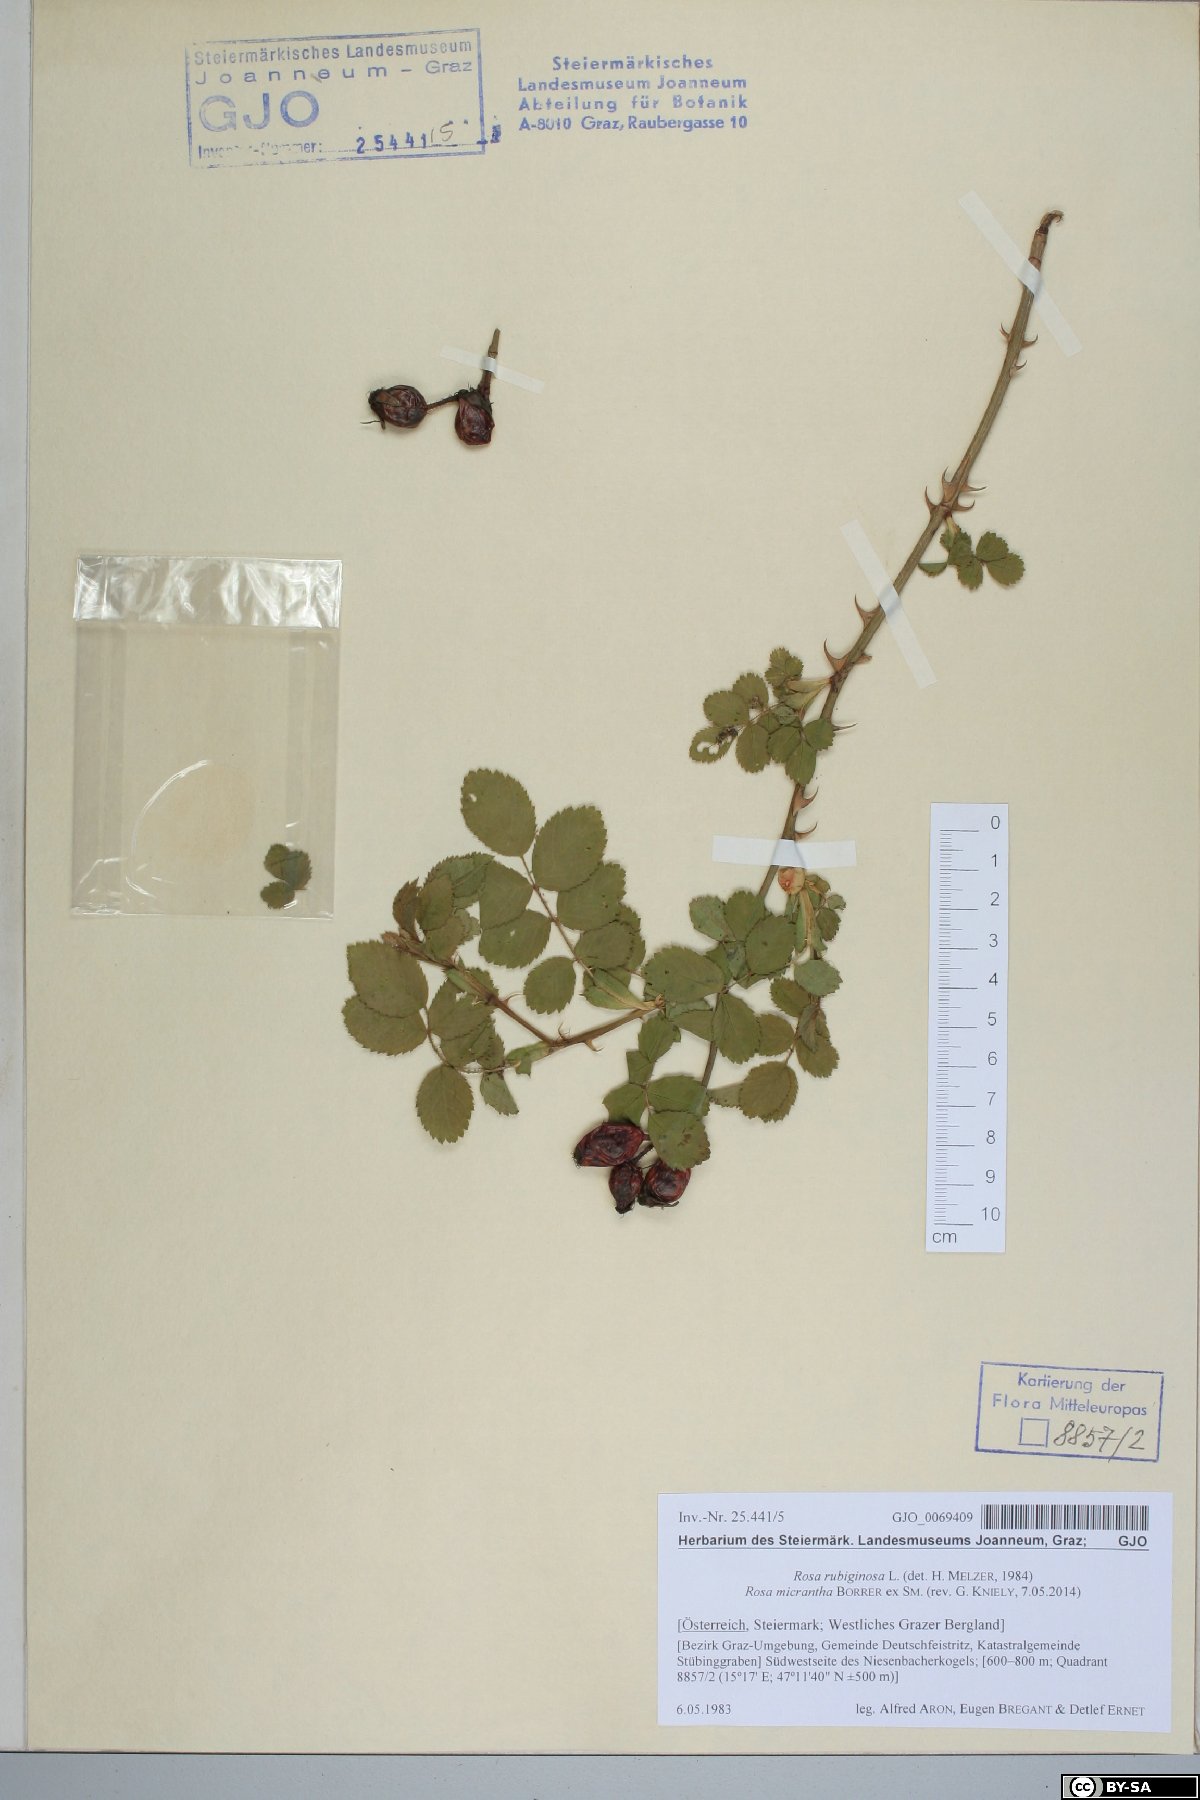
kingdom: Plantae
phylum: Tracheophyta
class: Magnoliopsida
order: Rosales
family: Rosaceae
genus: Rosa
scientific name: Rosa micrantha
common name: Small-flowered sweet-briar
